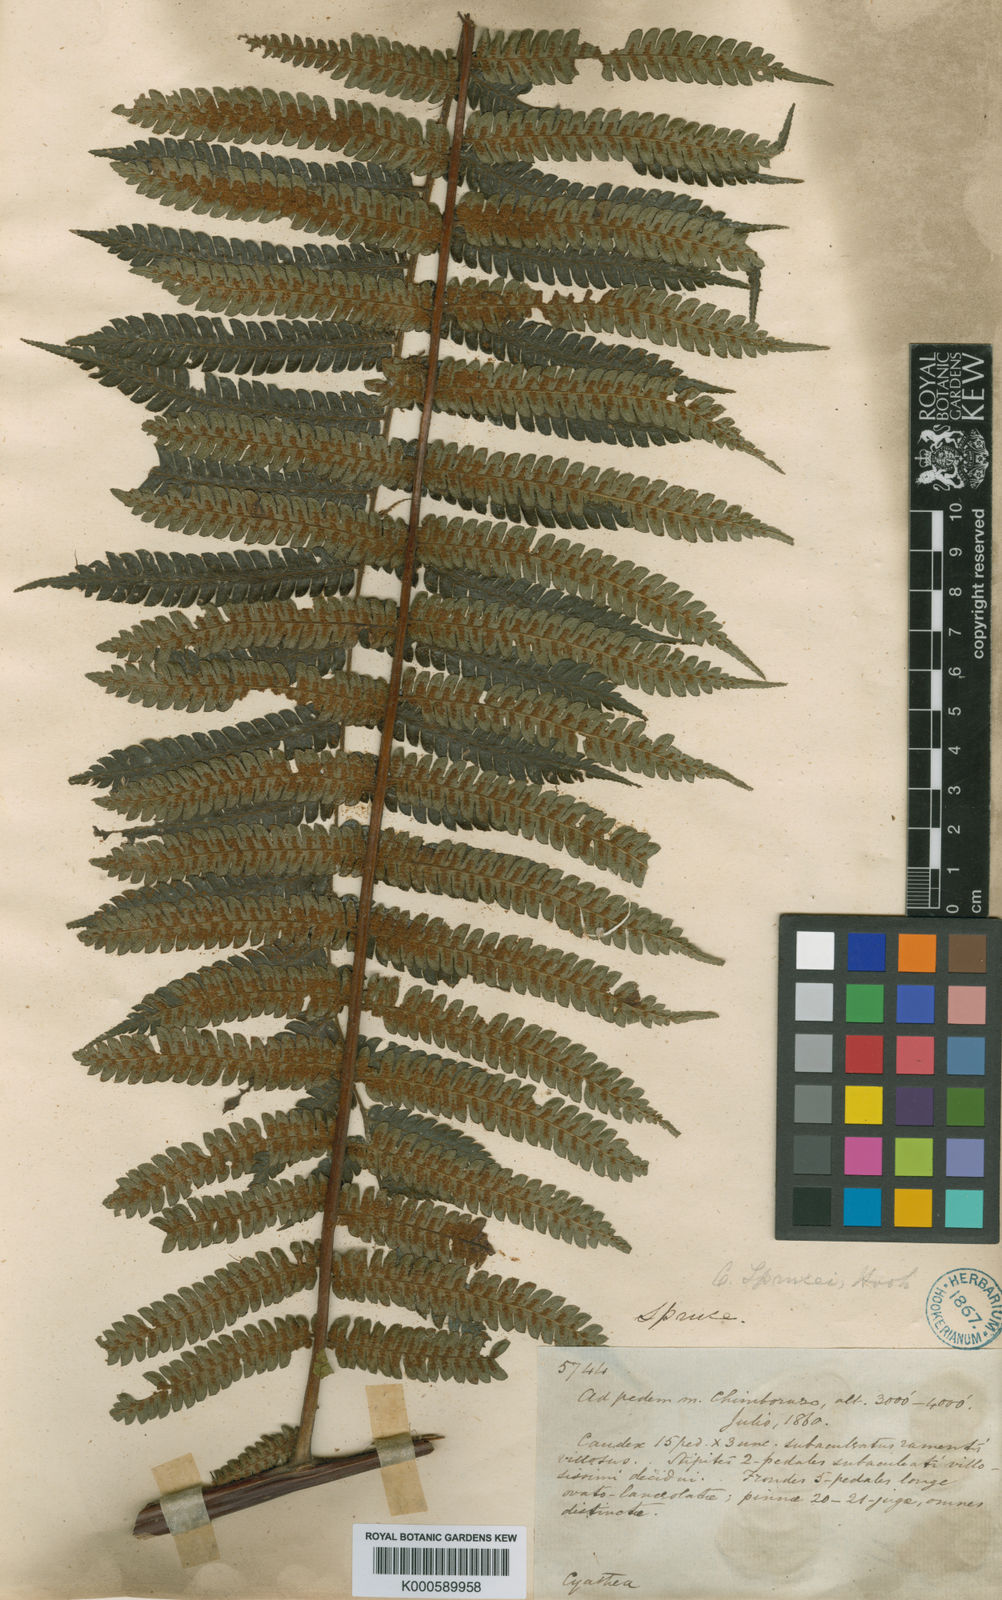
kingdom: Plantae
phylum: Tracheophyta
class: Polypodiopsida
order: Cyatheales
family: Cyatheaceae
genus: Alsophila
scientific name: Alsophila incana
